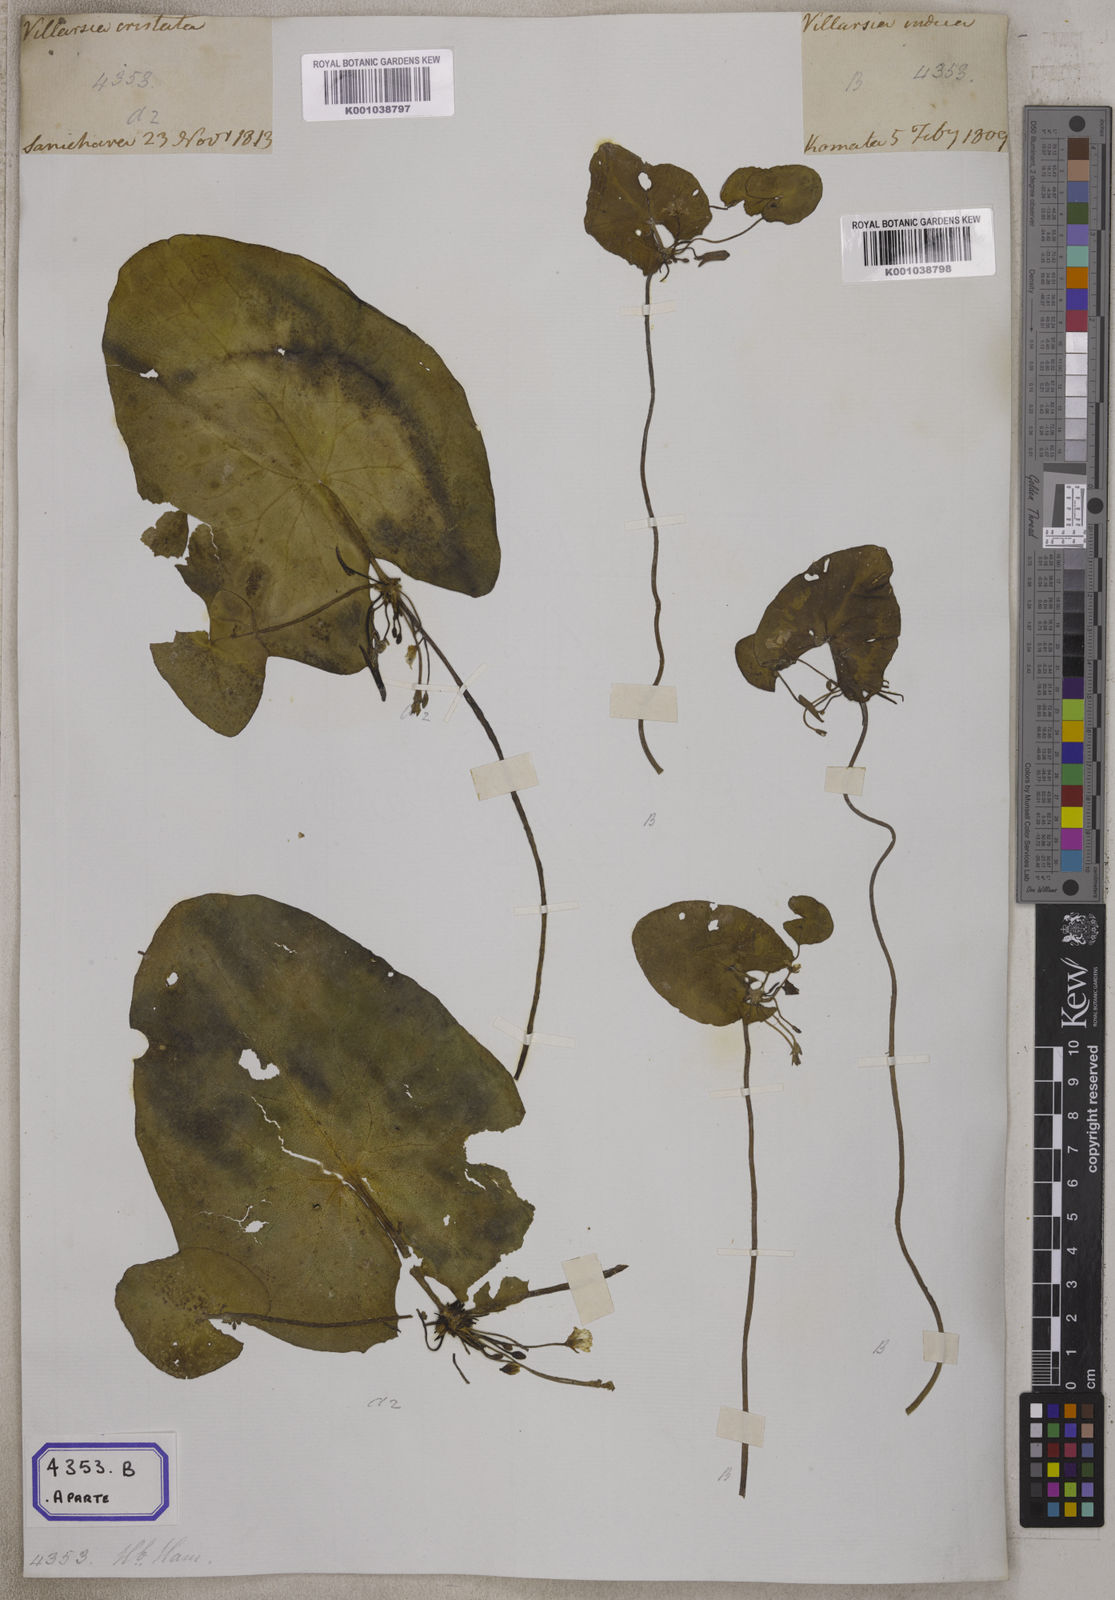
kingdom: Plantae
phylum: Tracheophyta
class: Magnoliopsida
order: Asterales
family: Menyanthaceae
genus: Nymphoides
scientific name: Nymphoides hydrophylla
